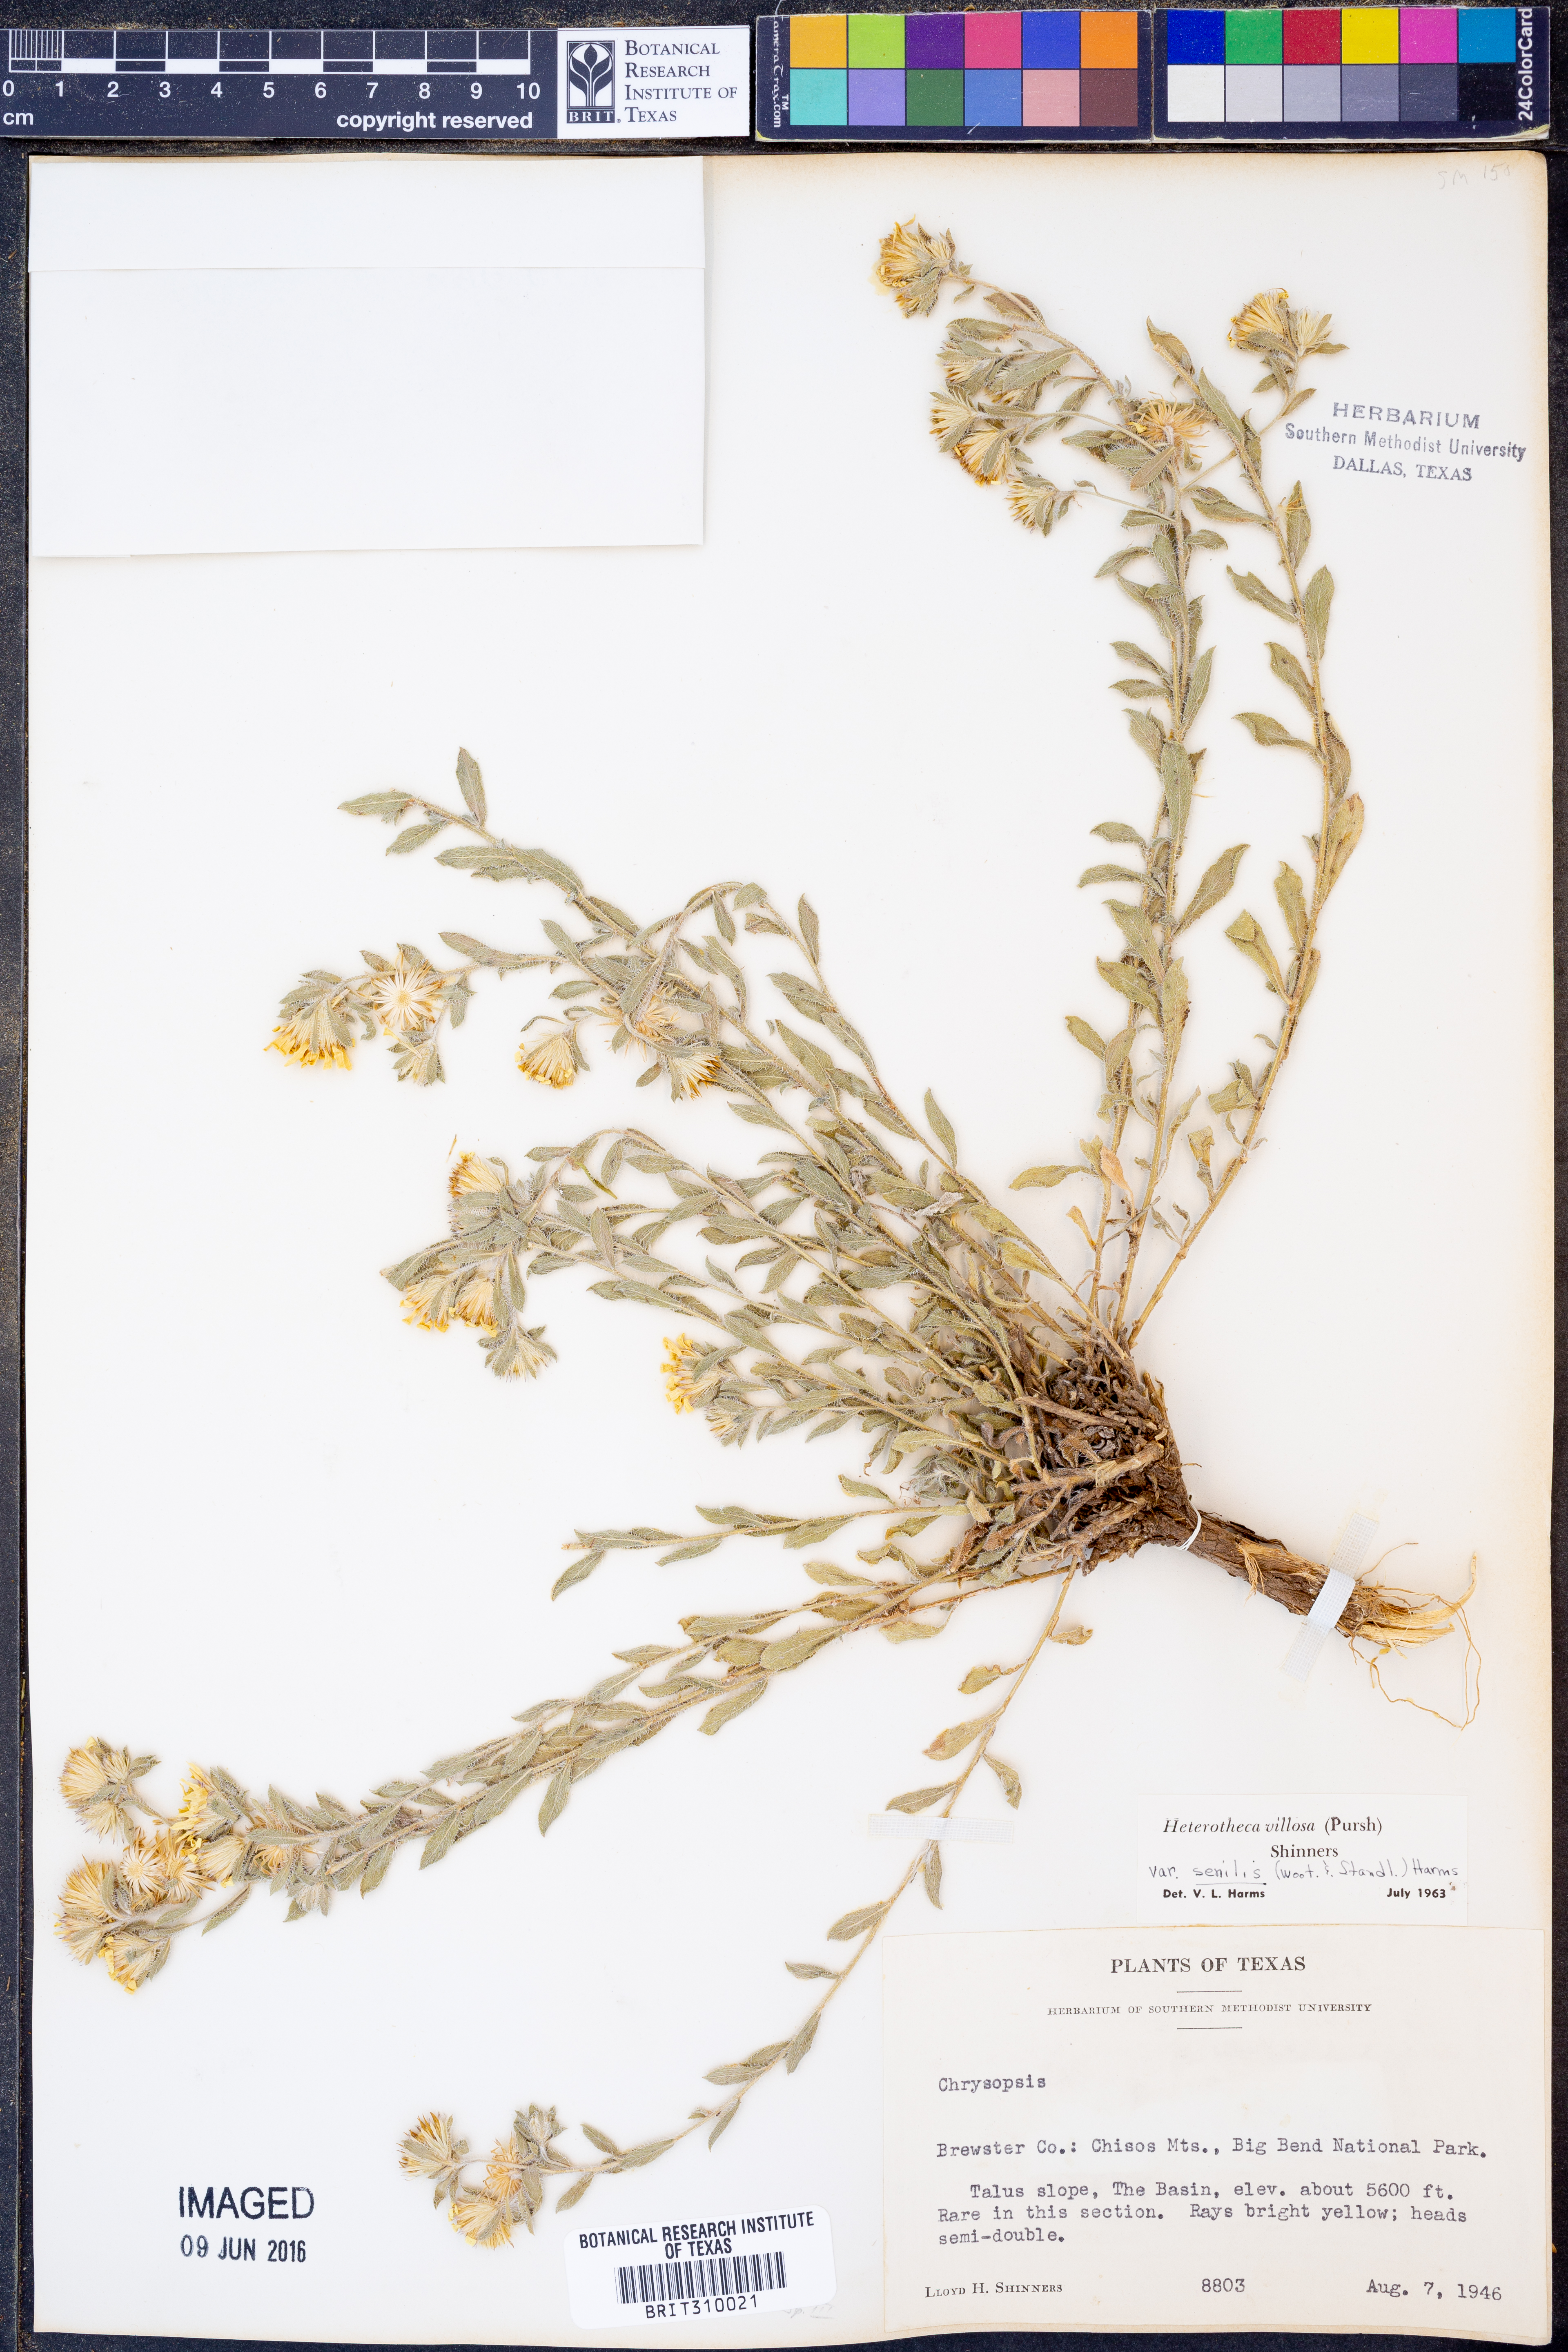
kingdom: Plantae
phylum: Tracheophyta
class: Magnoliopsida
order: Asterales
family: Asteraceae
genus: Heterotheca
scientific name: Heterotheca villosa
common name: Hairy false goldenaster
